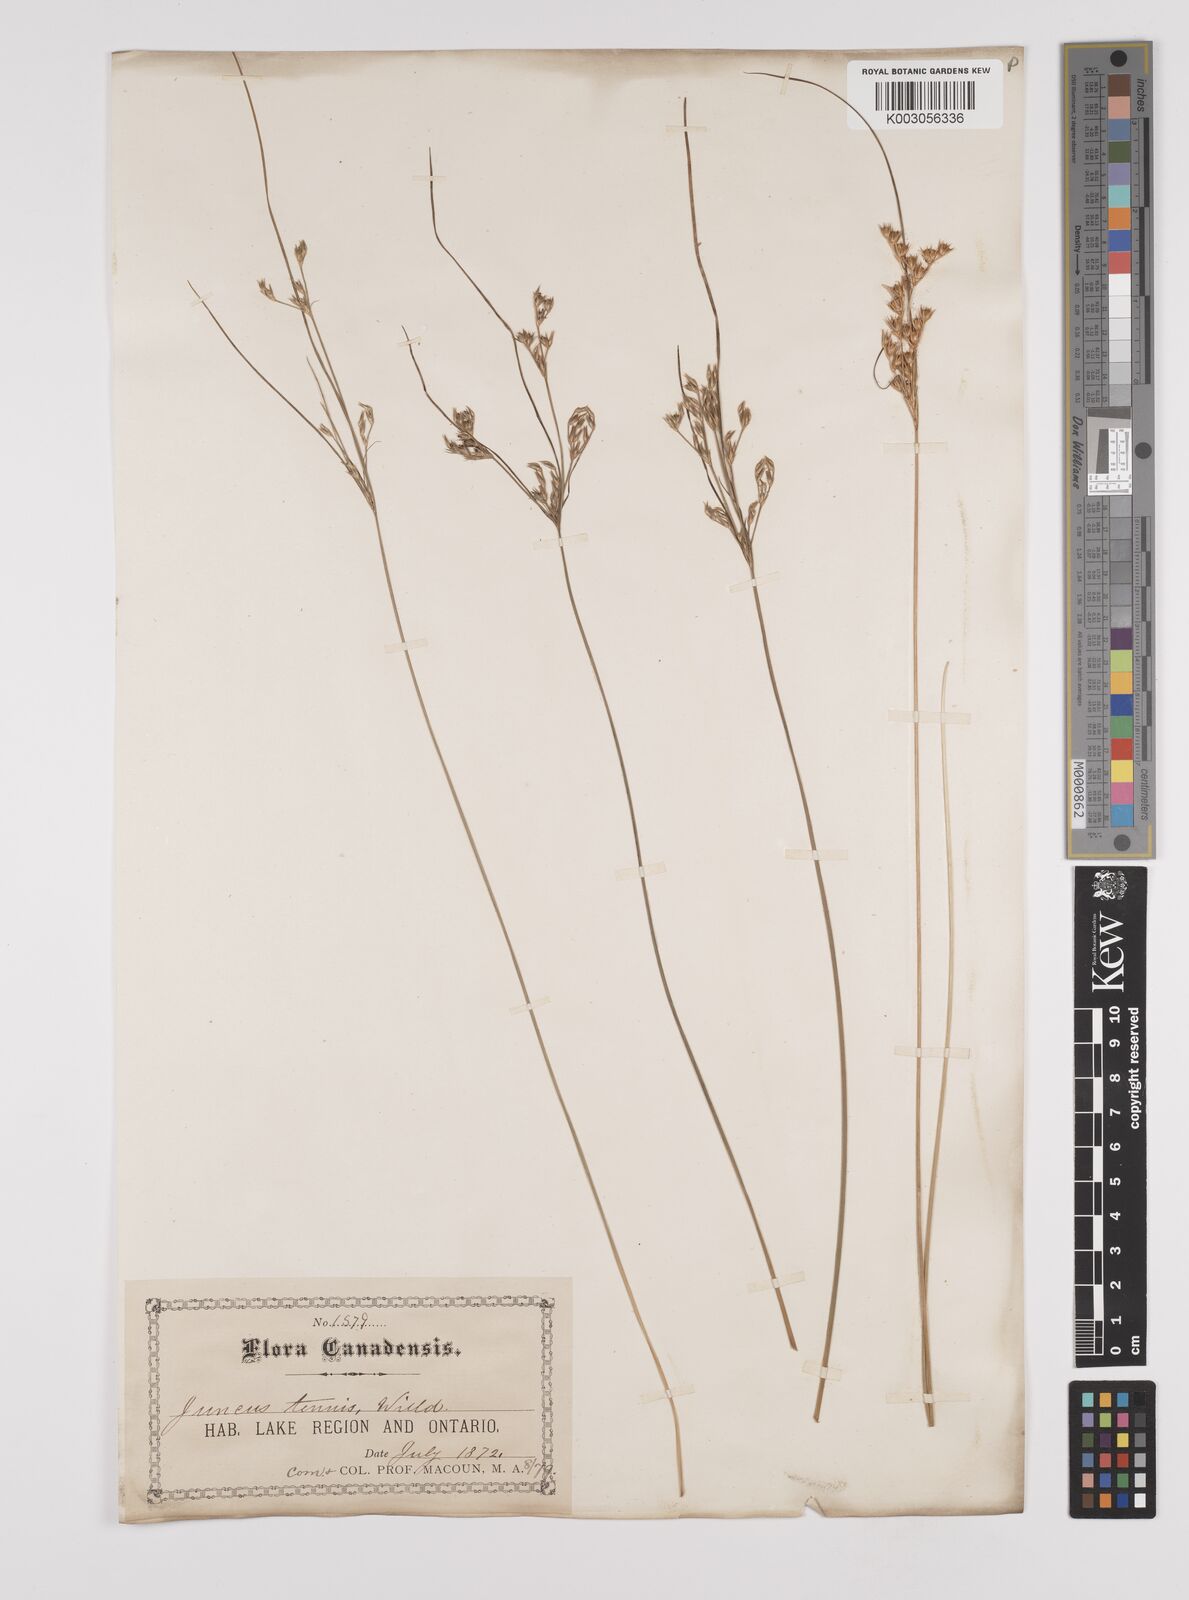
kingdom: Plantae
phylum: Tracheophyta
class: Liliopsida
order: Poales
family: Juncaceae
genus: Juncus
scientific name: Juncus tenuis
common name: Slender rush
